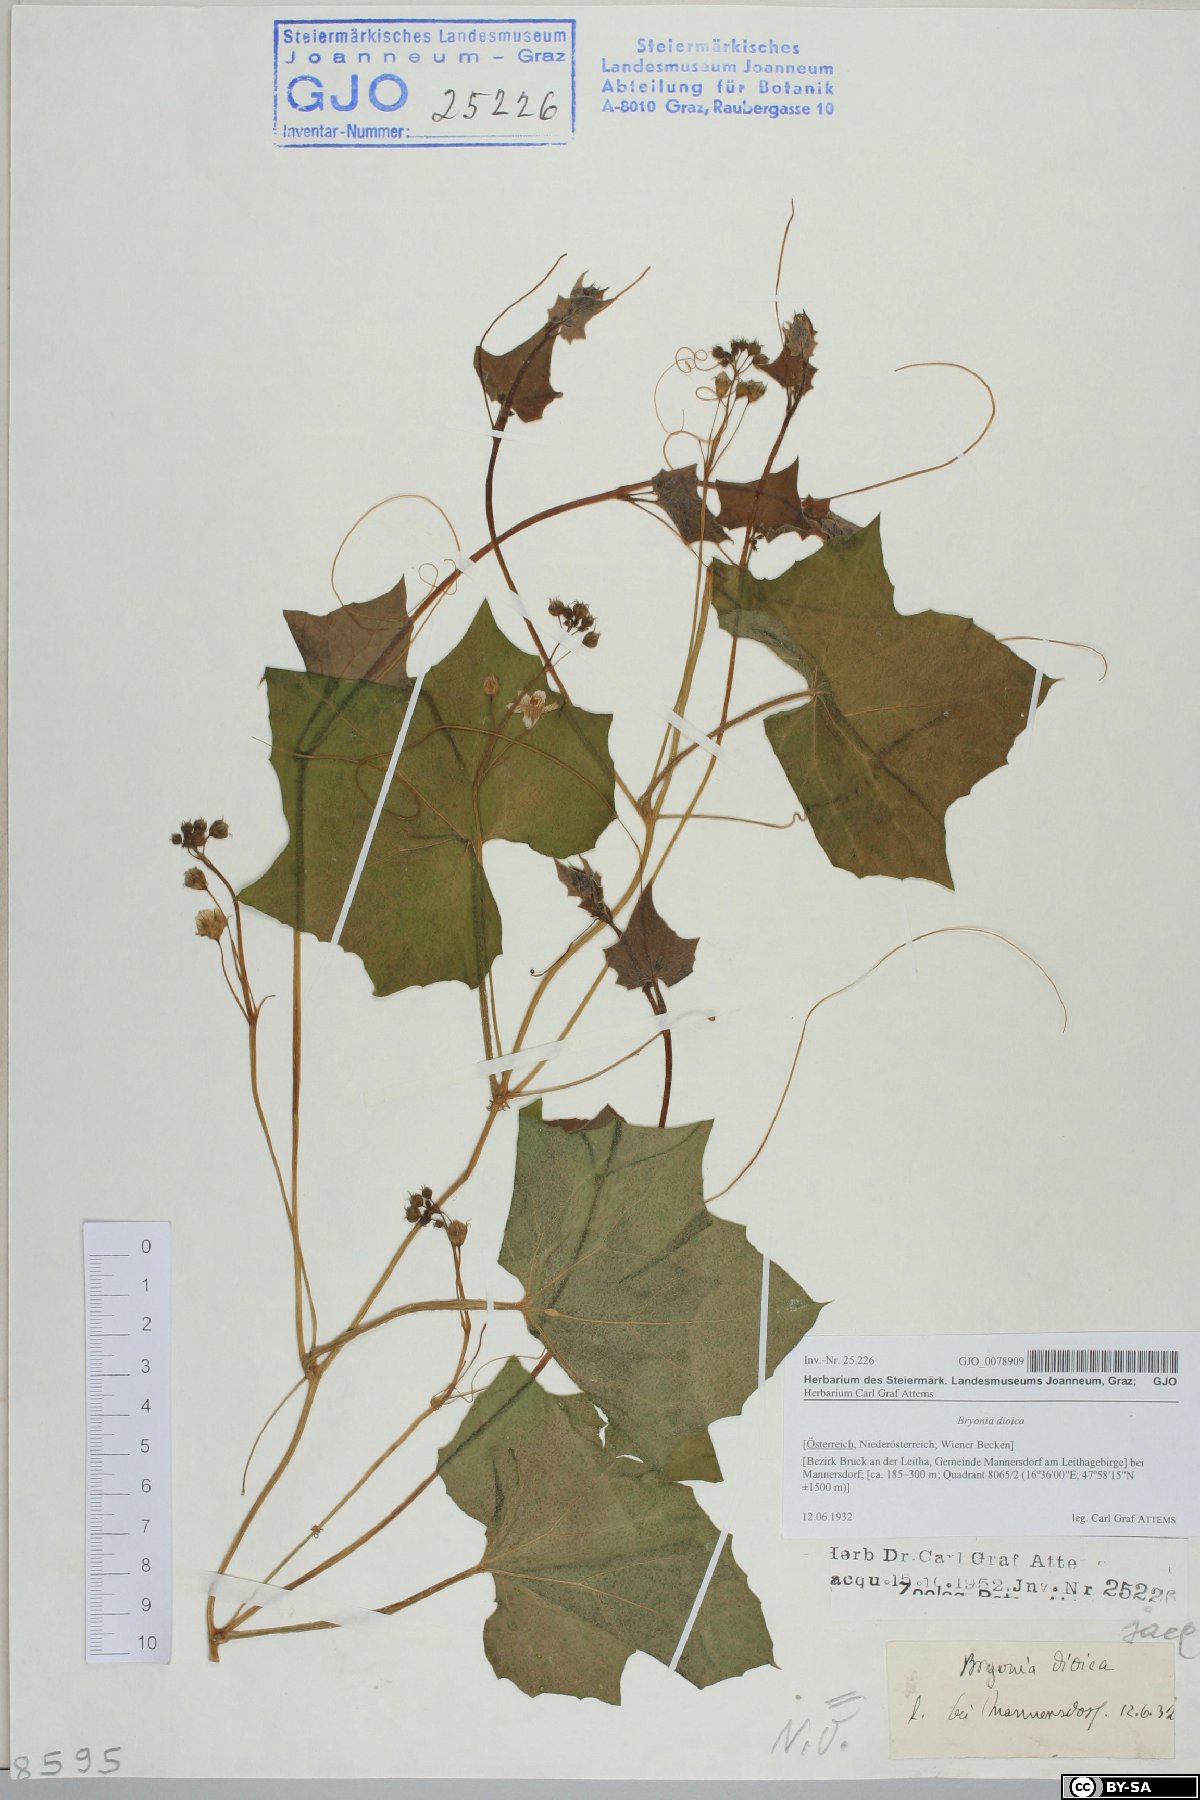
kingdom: Plantae
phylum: Tracheophyta
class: Magnoliopsida
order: Cucurbitales
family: Cucurbitaceae
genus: Bryonia
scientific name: Bryonia dioica
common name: White bryony
